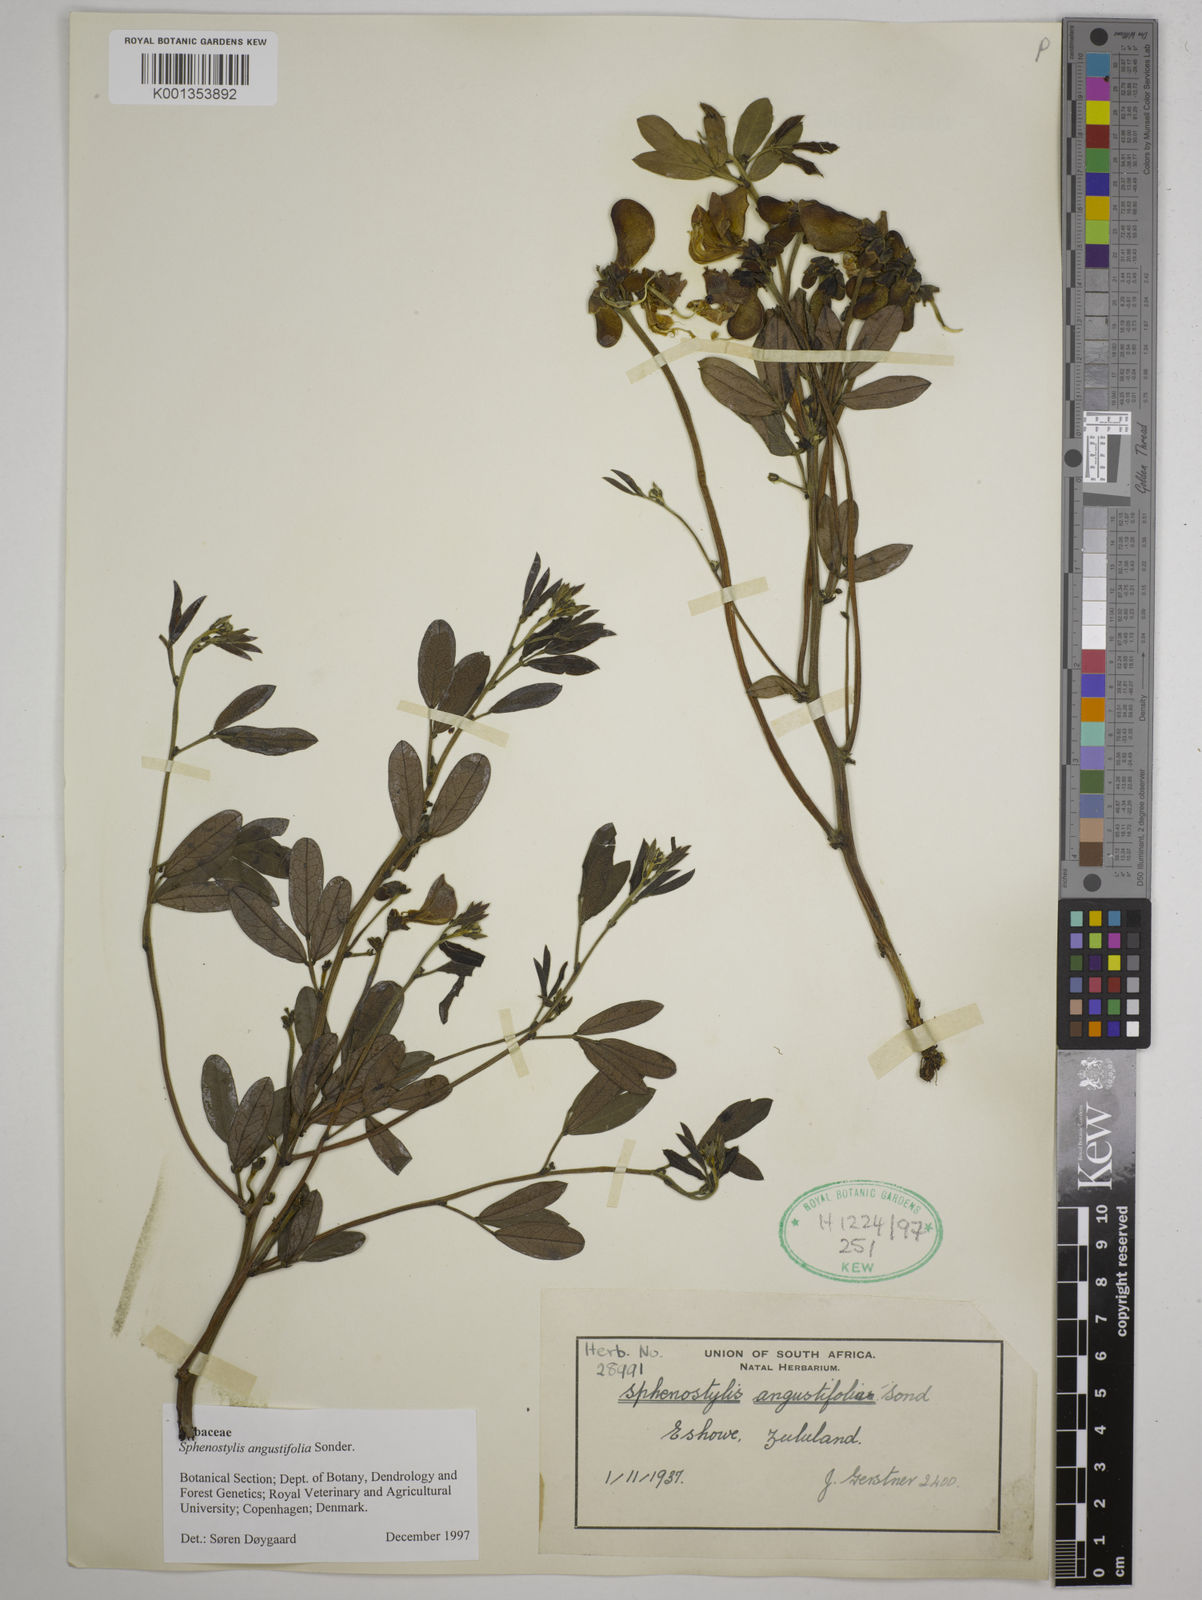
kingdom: Plantae
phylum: Tracheophyta
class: Magnoliopsida
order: Fabales
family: Fabaceae
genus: Sphenostylis
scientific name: Sphenostylis angustifolia
